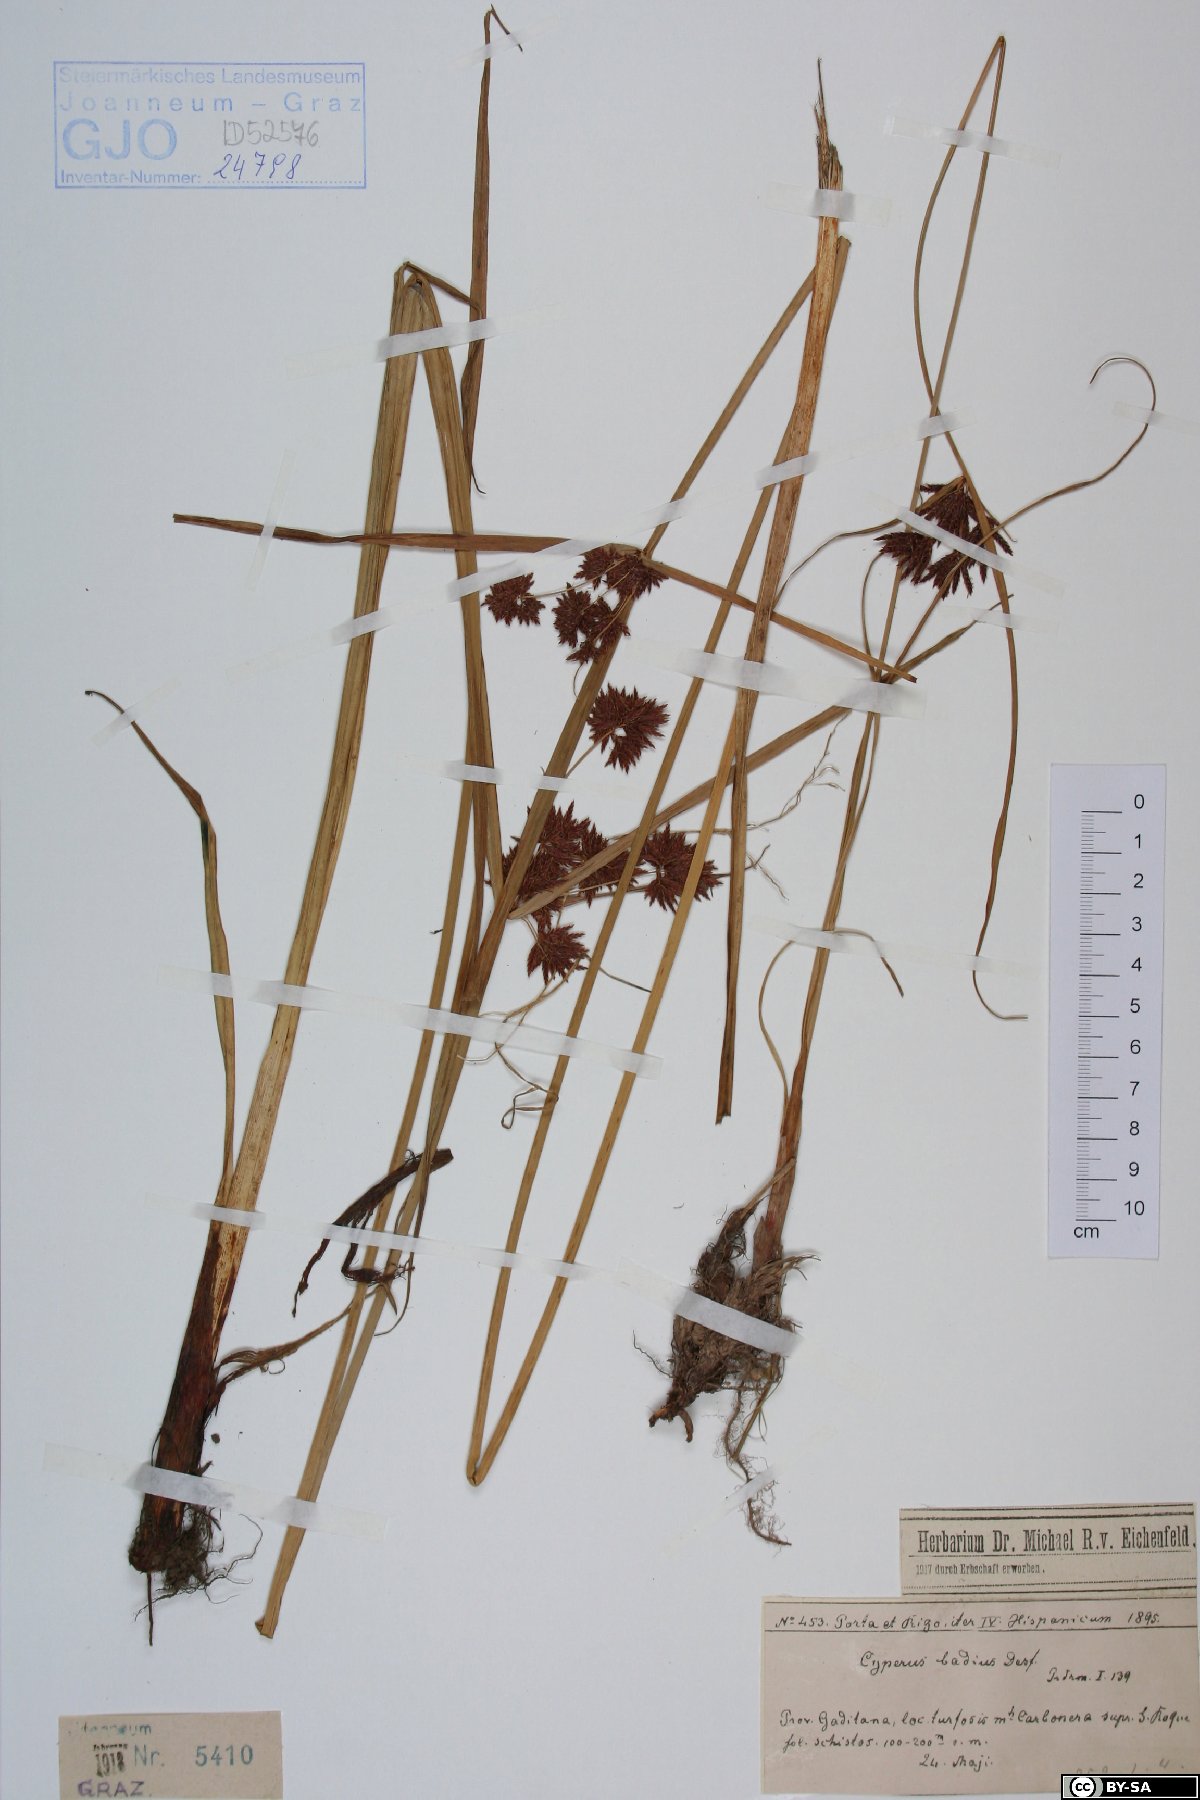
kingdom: Plantae
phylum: Tracheophyta
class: Liliopsida
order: Poales
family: Cyperaceae
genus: Cyperus
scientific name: Cyperus longus
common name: Galingale
